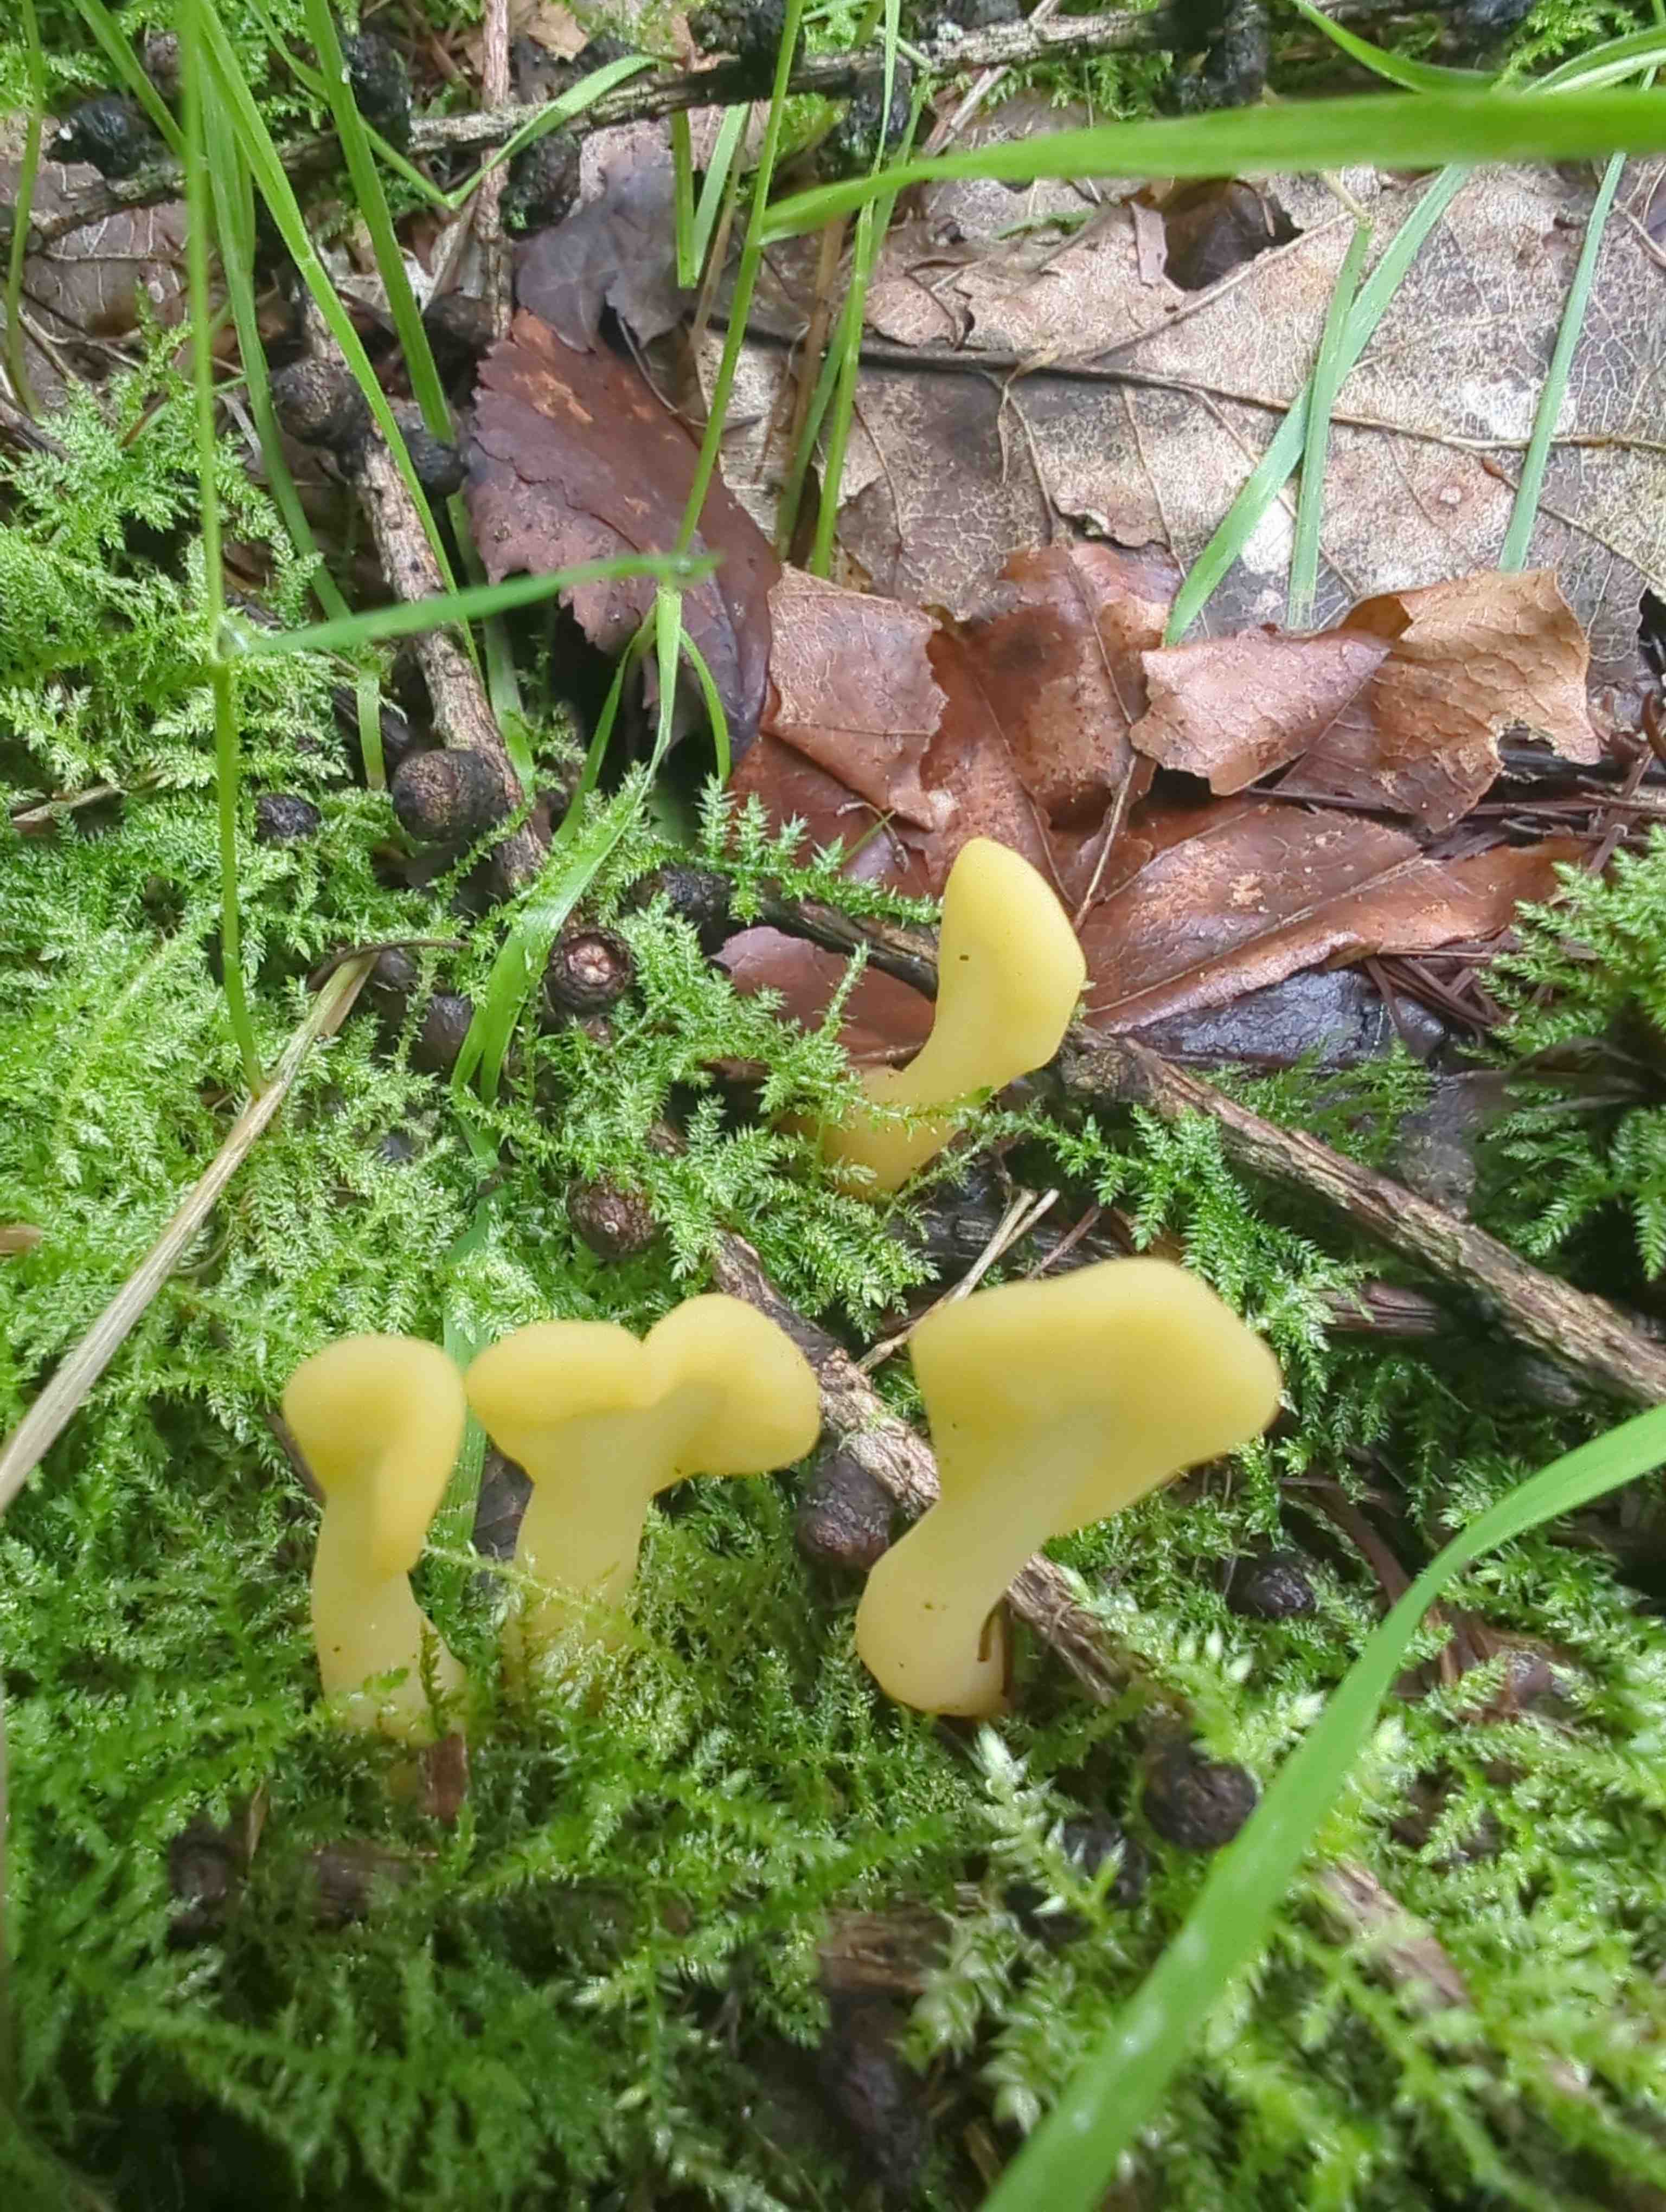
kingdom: Fungi
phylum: Ascomycota
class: Leotiomycetes
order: Rhytismatales
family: Cudoniaceae
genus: Spathularia
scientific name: Spathularia flavida
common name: gul spatelsvamp
